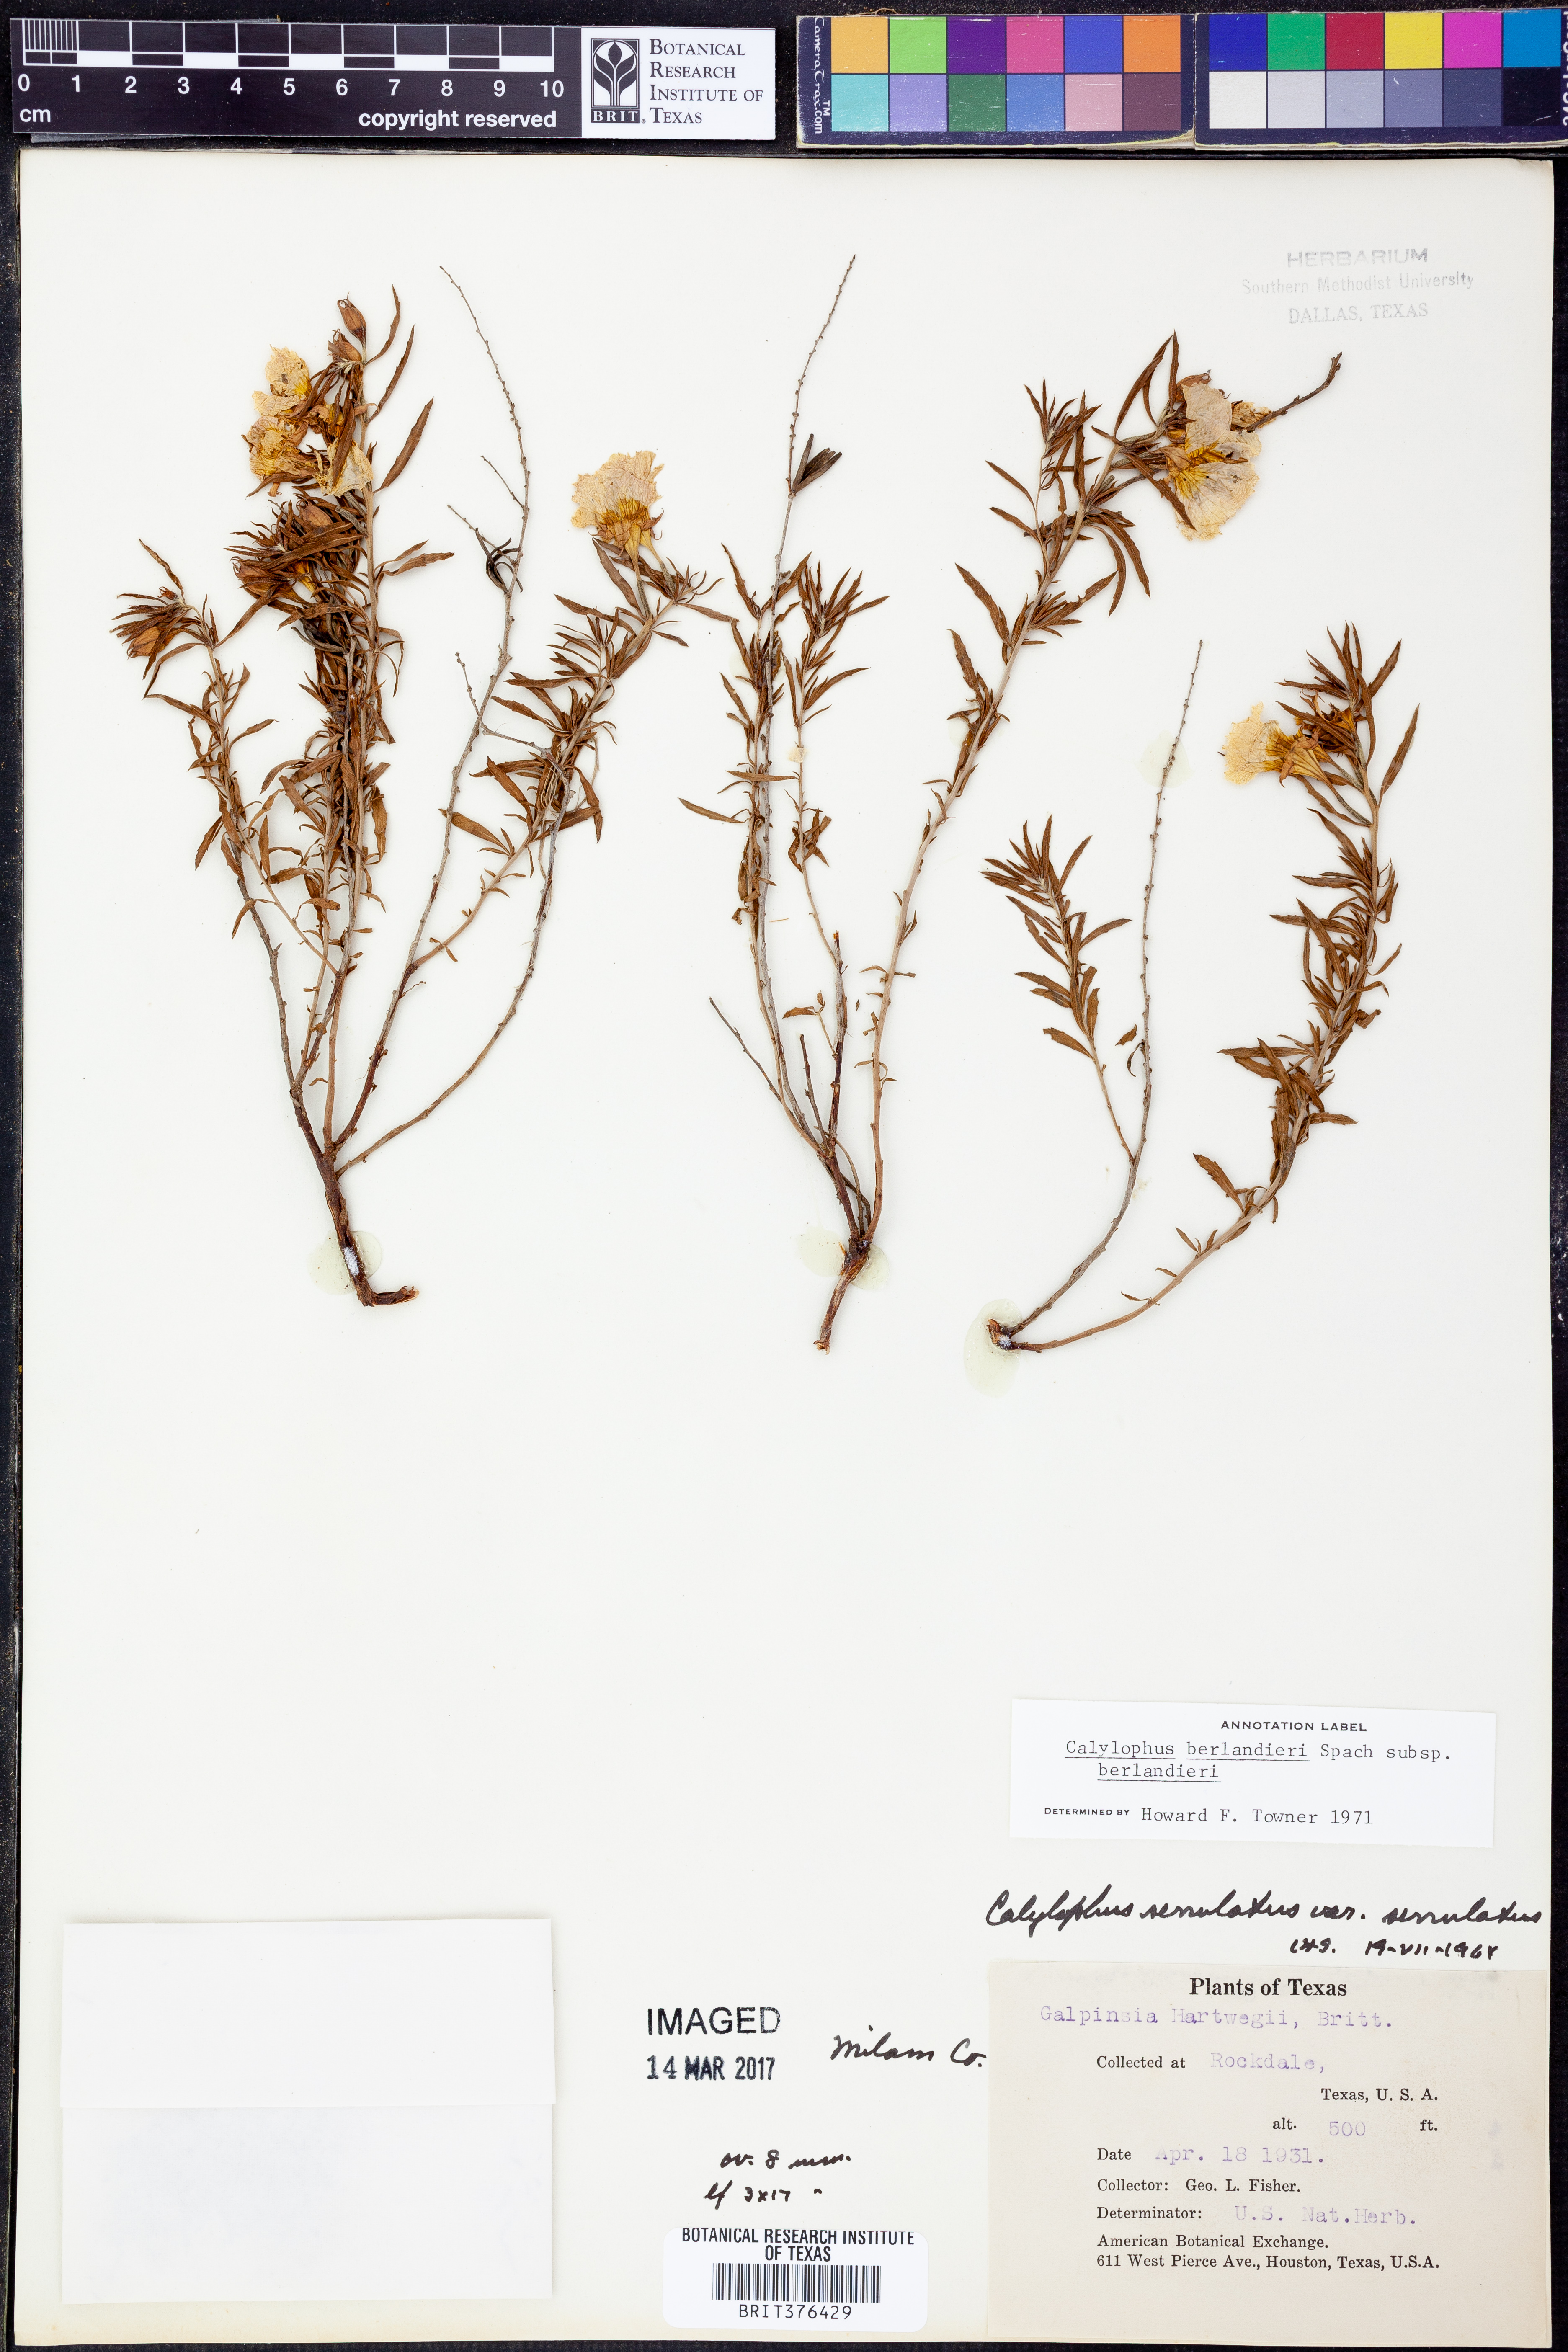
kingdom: Plantae
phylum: Tracheophyta
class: Magnoliopsida
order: Myrtales
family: Onagraceae
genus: Oenothera
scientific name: Oenothera capillifolia
